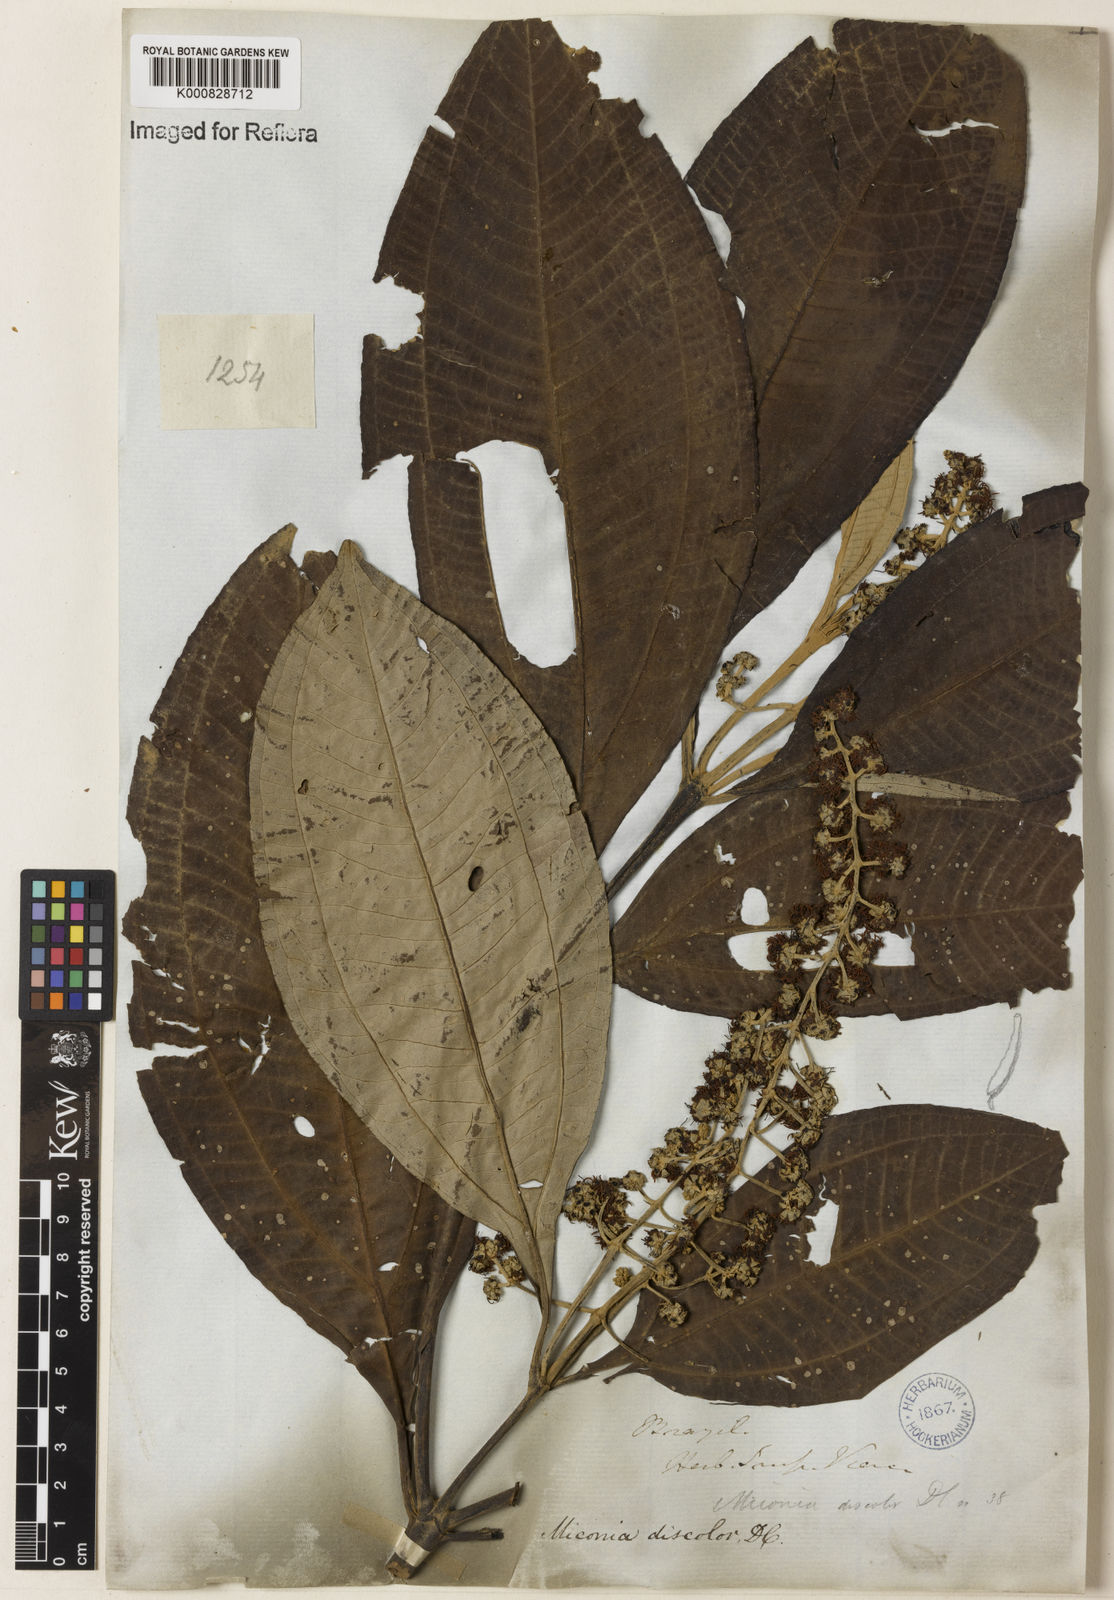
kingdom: Plantae
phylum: Tracheophyta
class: Magnoliopsida
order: Myrtales
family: Melastomataceae
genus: Miconia
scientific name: Miconia discolor
